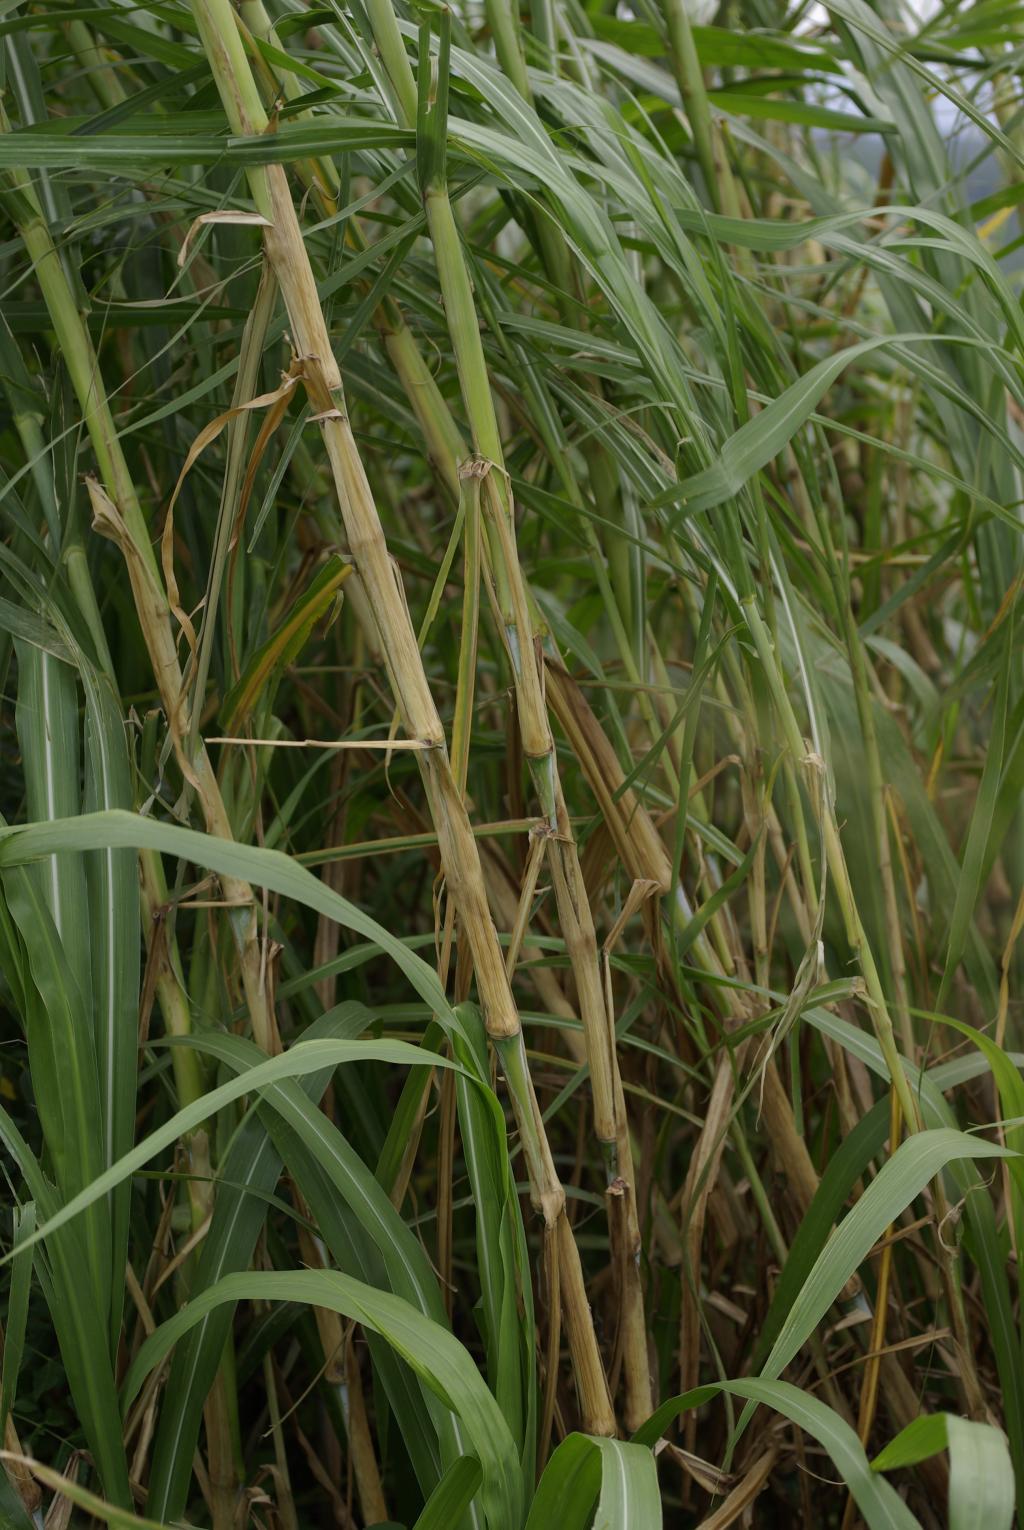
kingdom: Plantae
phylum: Tracheophyta
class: Liliopsida
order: Poales
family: Poaceae
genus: Cenchrus
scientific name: Cenchrus purpureus
